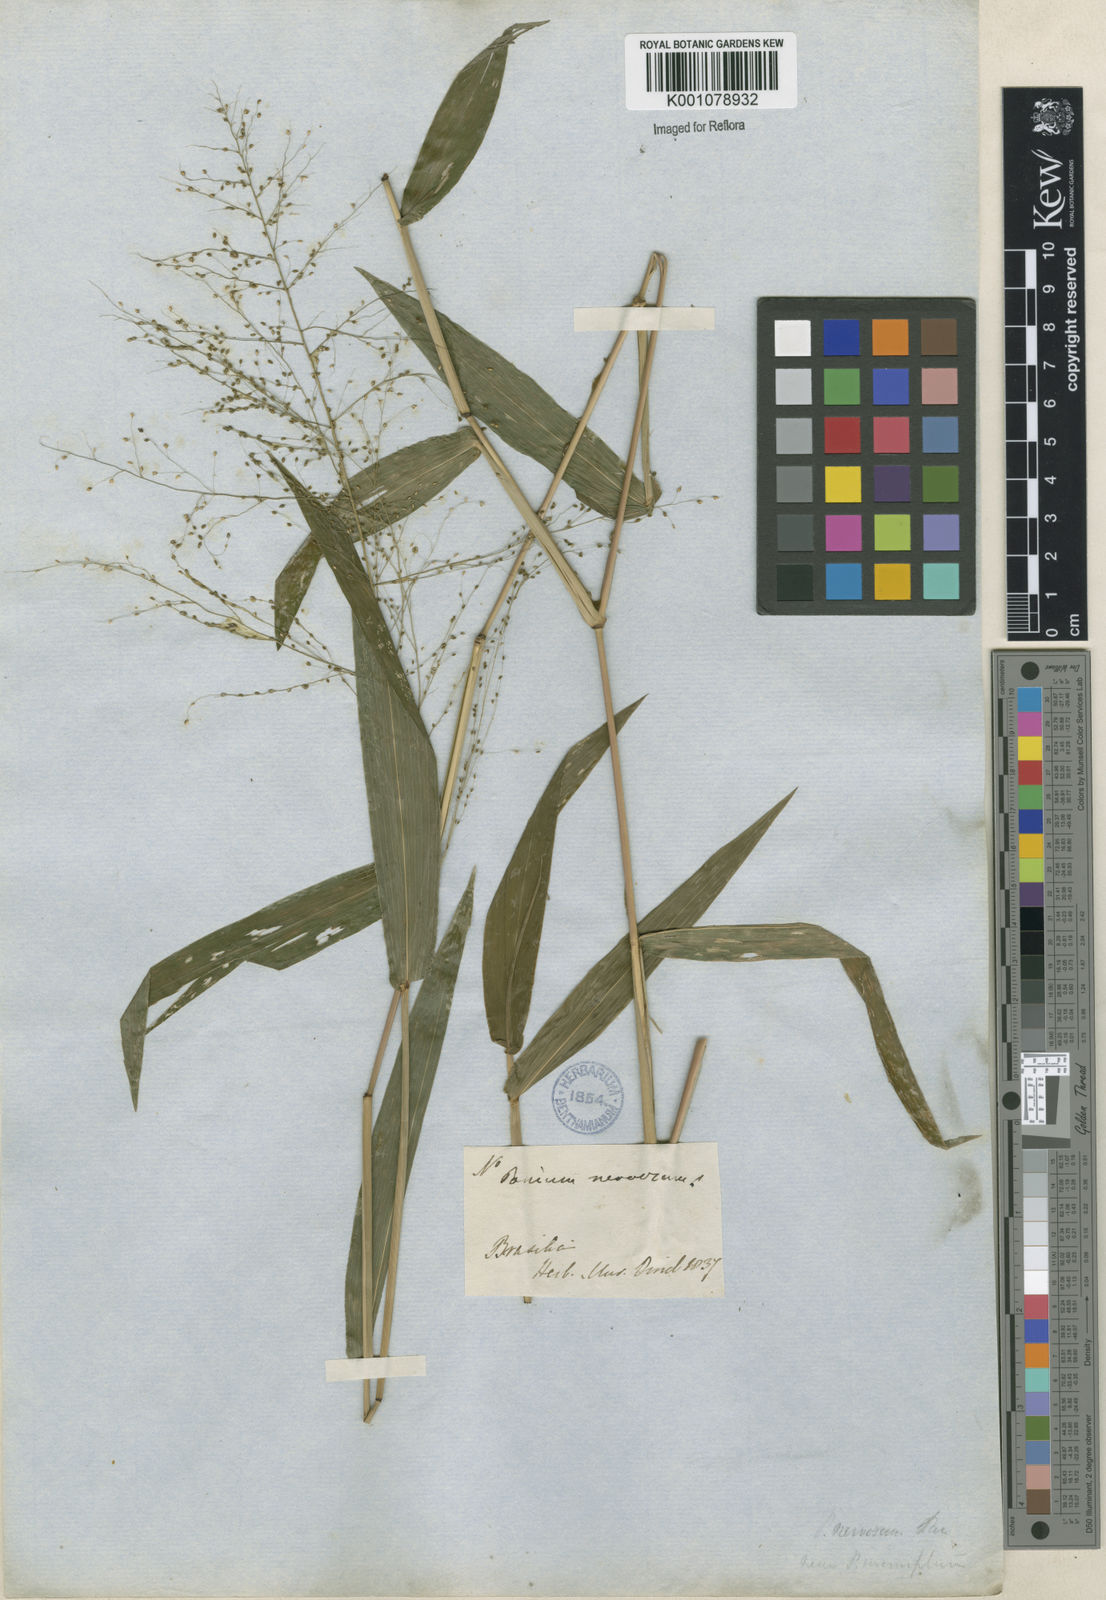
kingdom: Plantae
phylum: Tracheophyta
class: Liliopsida
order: Poales
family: Poaceae
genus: Panicum
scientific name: Panicum
